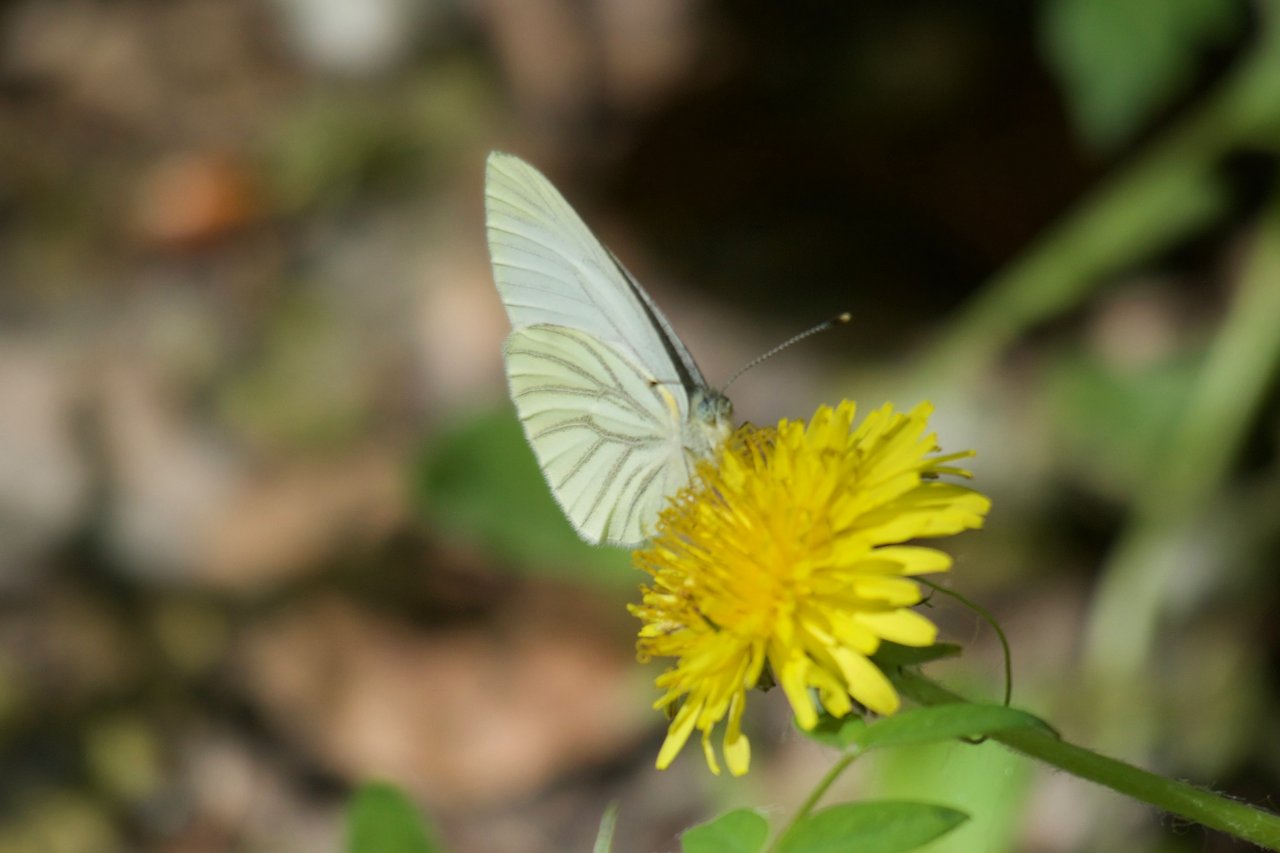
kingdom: Animalia
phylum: Arthropoda
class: Insecta
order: Lepidoptera
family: Pieridae
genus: Pieris
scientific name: Pieris oleracea
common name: Mustard White
